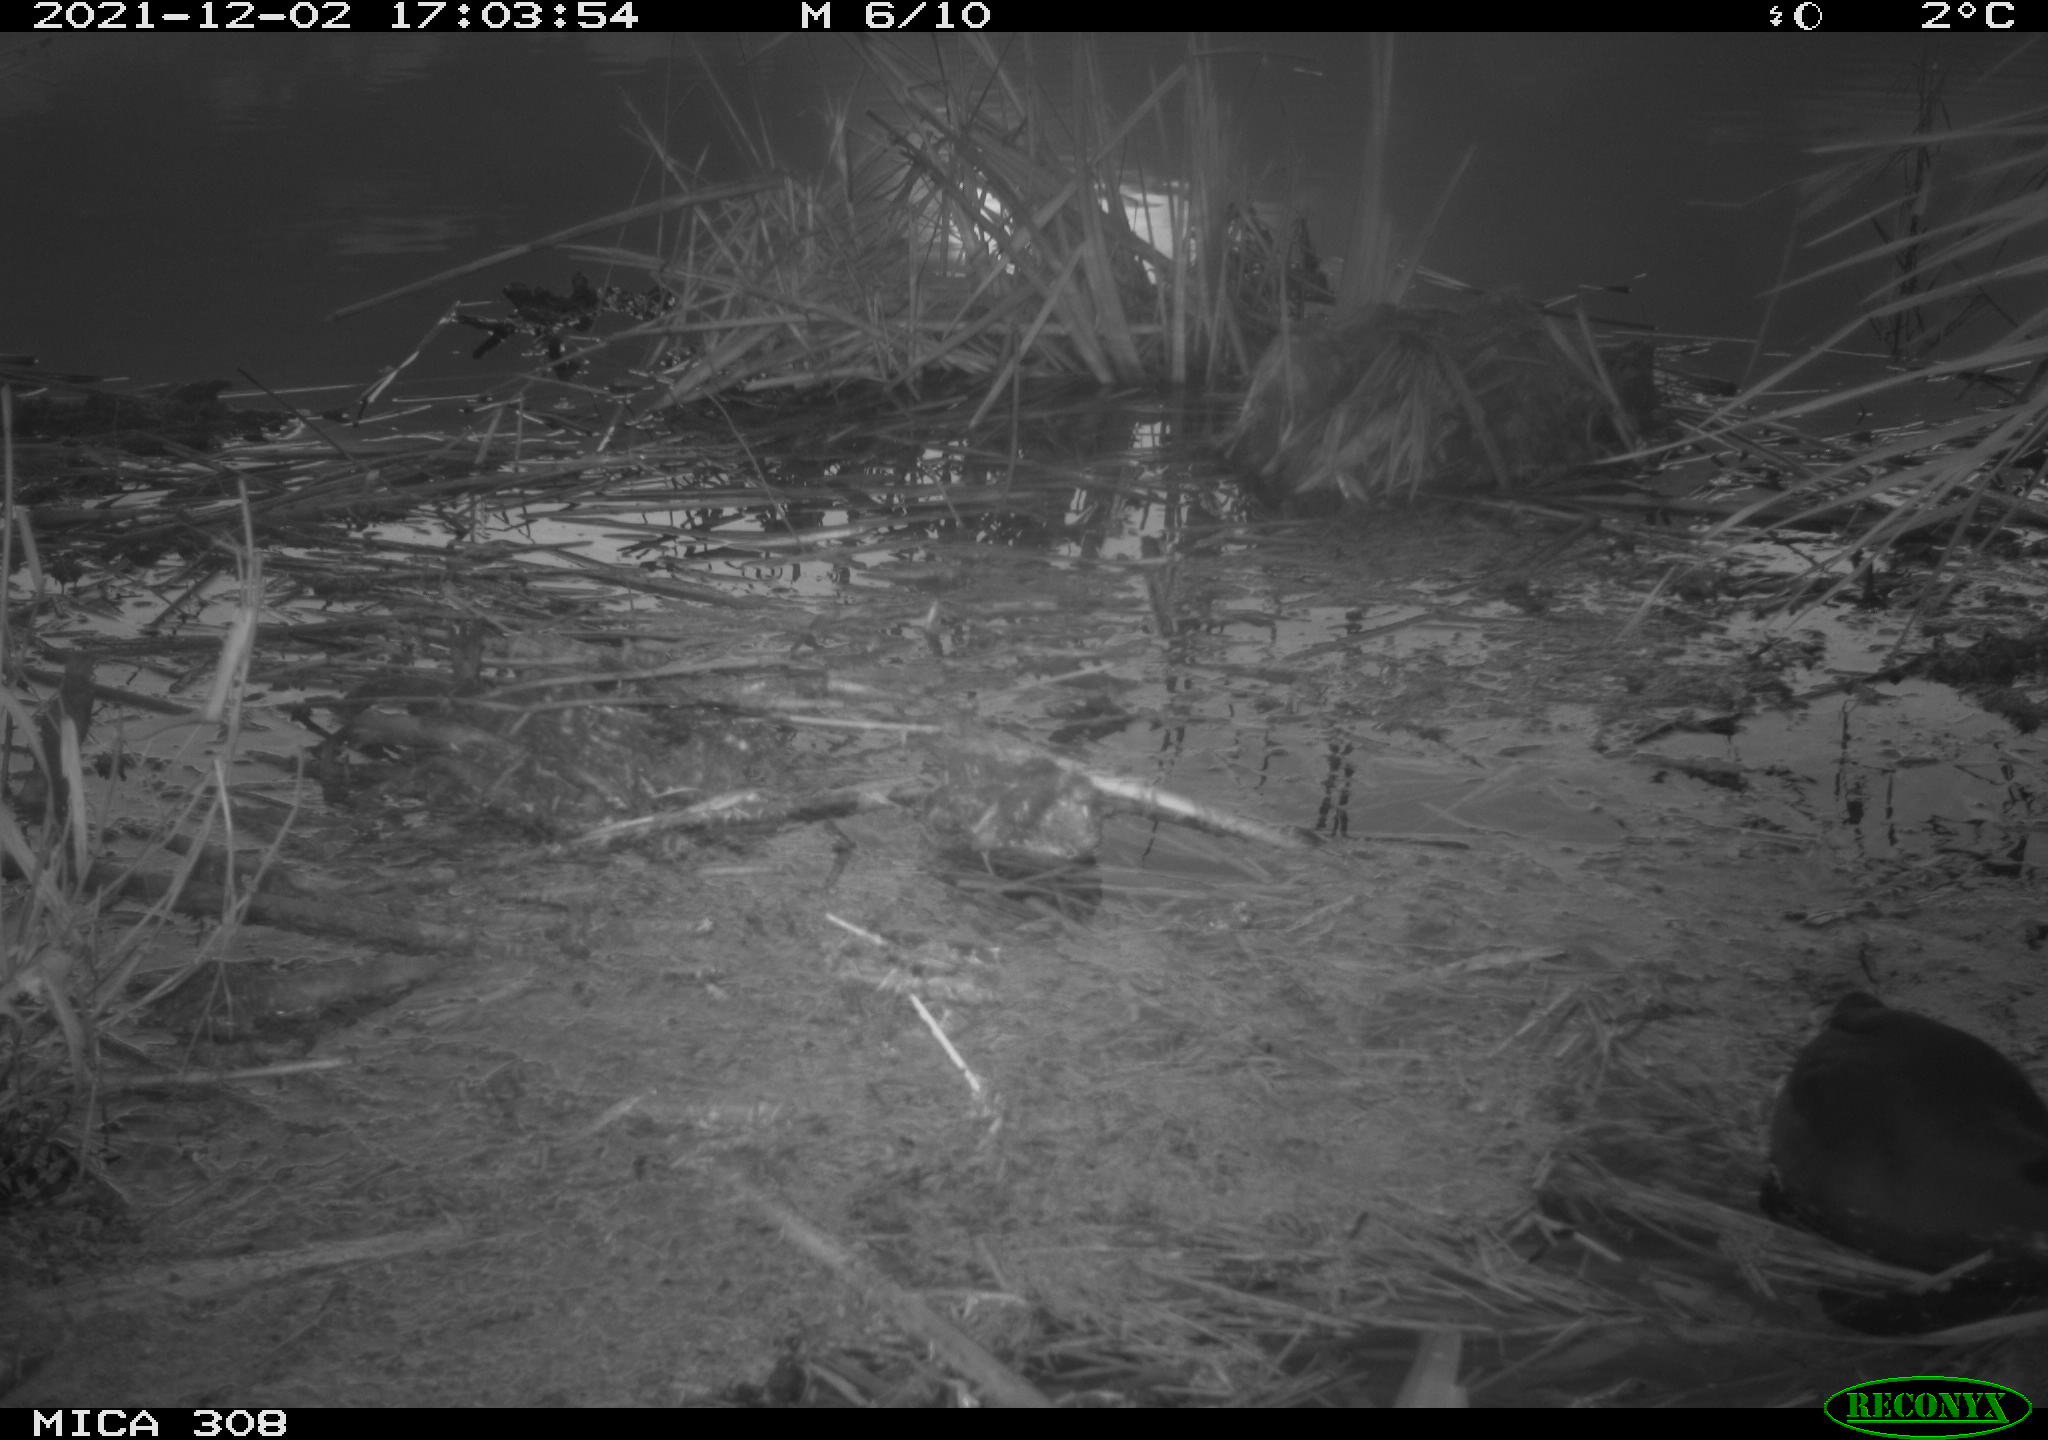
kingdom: Animalia
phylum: Chordata
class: Aves
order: Gruiformes
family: Rallidae
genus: Gallinula
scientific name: Gallinula chloropus
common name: Common moorhen
